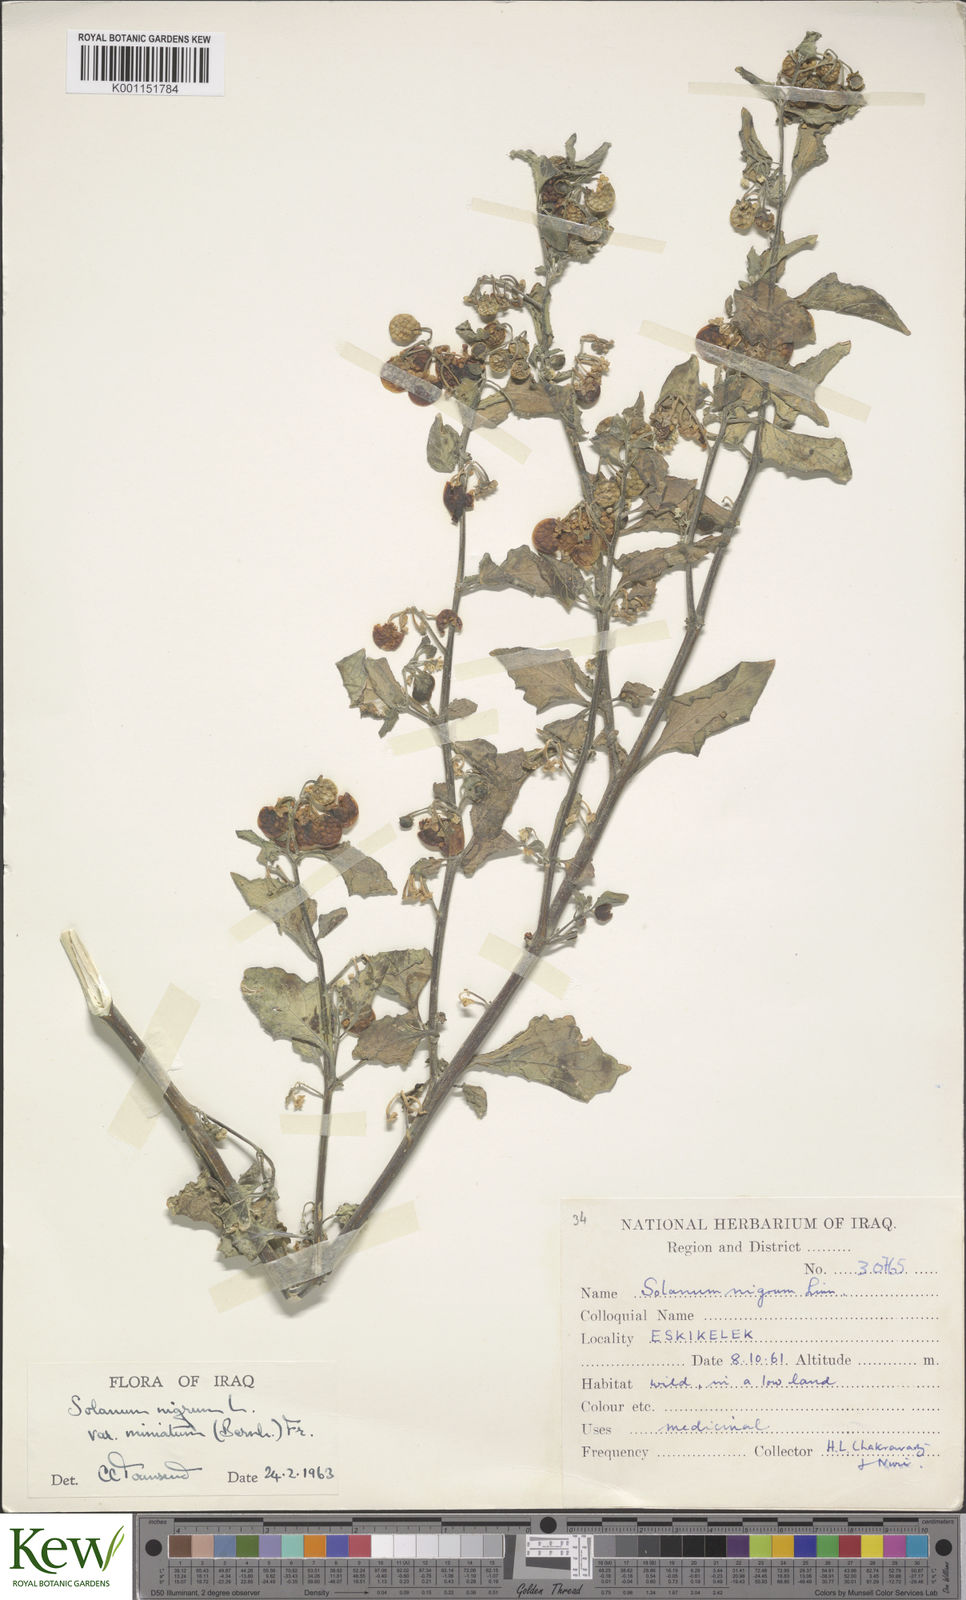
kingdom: Plantae
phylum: Tracheophyta
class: Magnoliopsida
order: Solanales
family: Solanaceae
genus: Solanum
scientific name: Solanum nigrum
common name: Black nightshade
